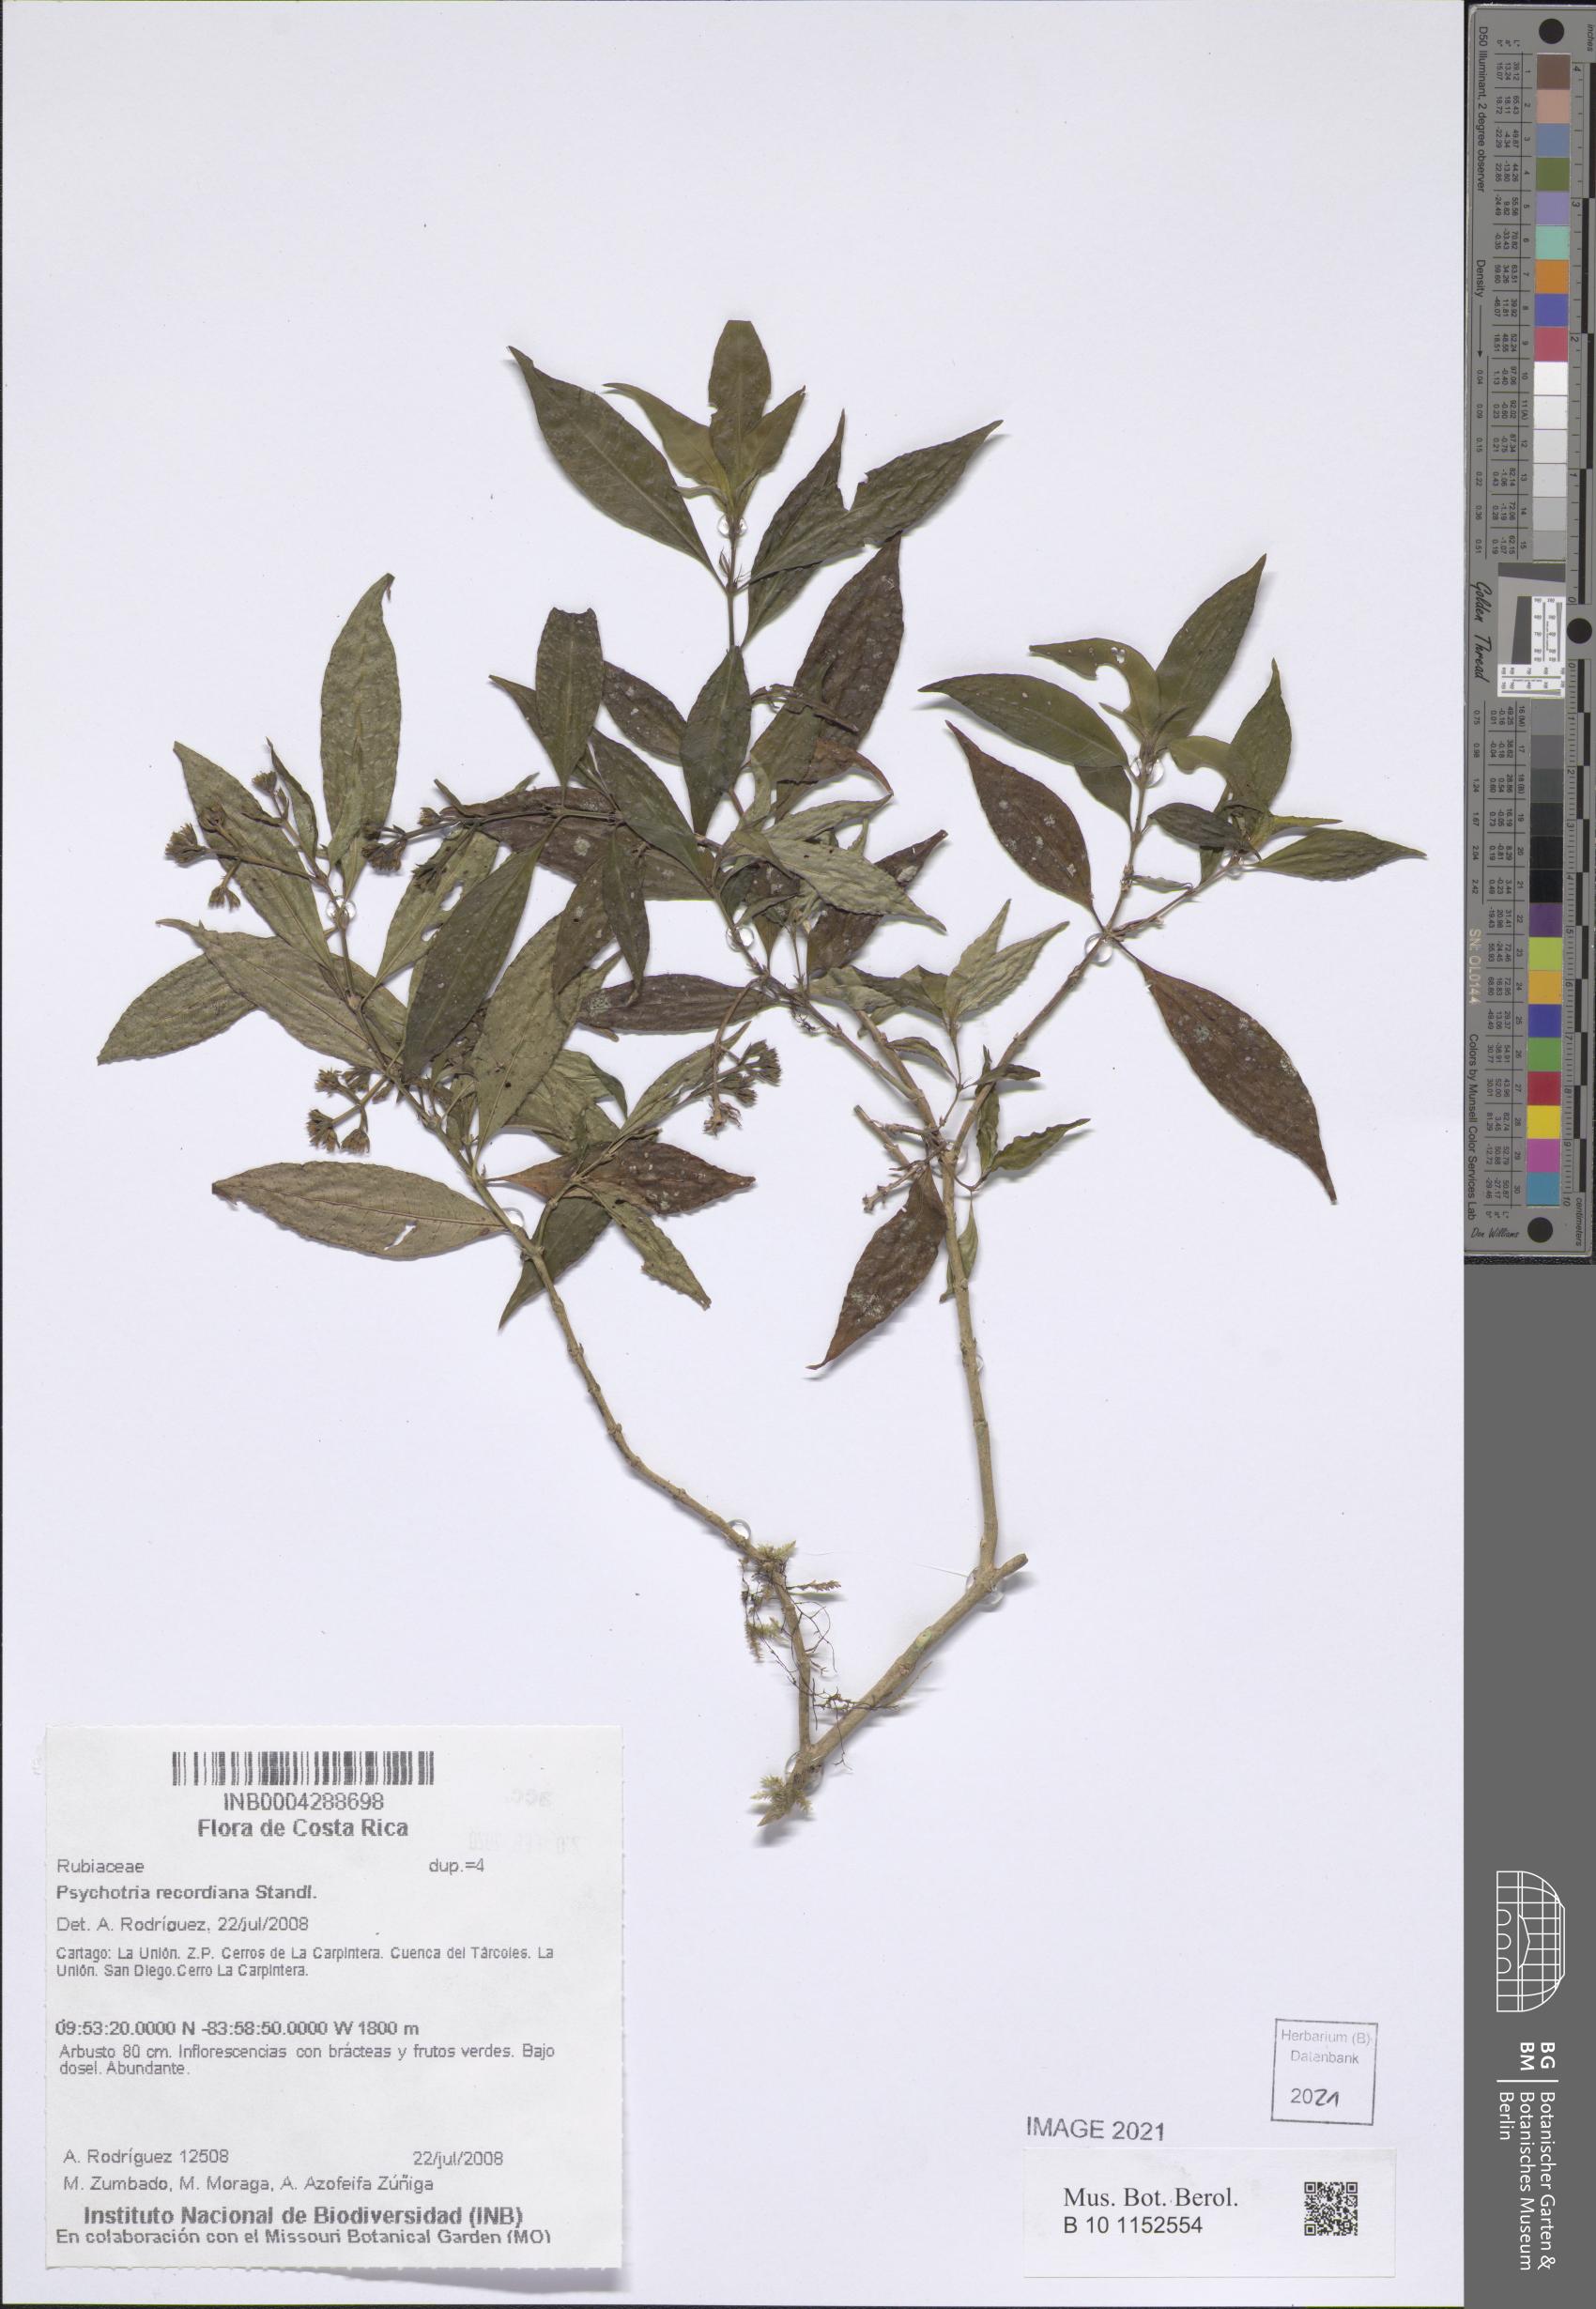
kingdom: Plantae
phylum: Tracheophyta
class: Magnoliopsida
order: Gentianales
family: Rubiaceae
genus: Palicourea
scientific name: Palicourea hazenii
